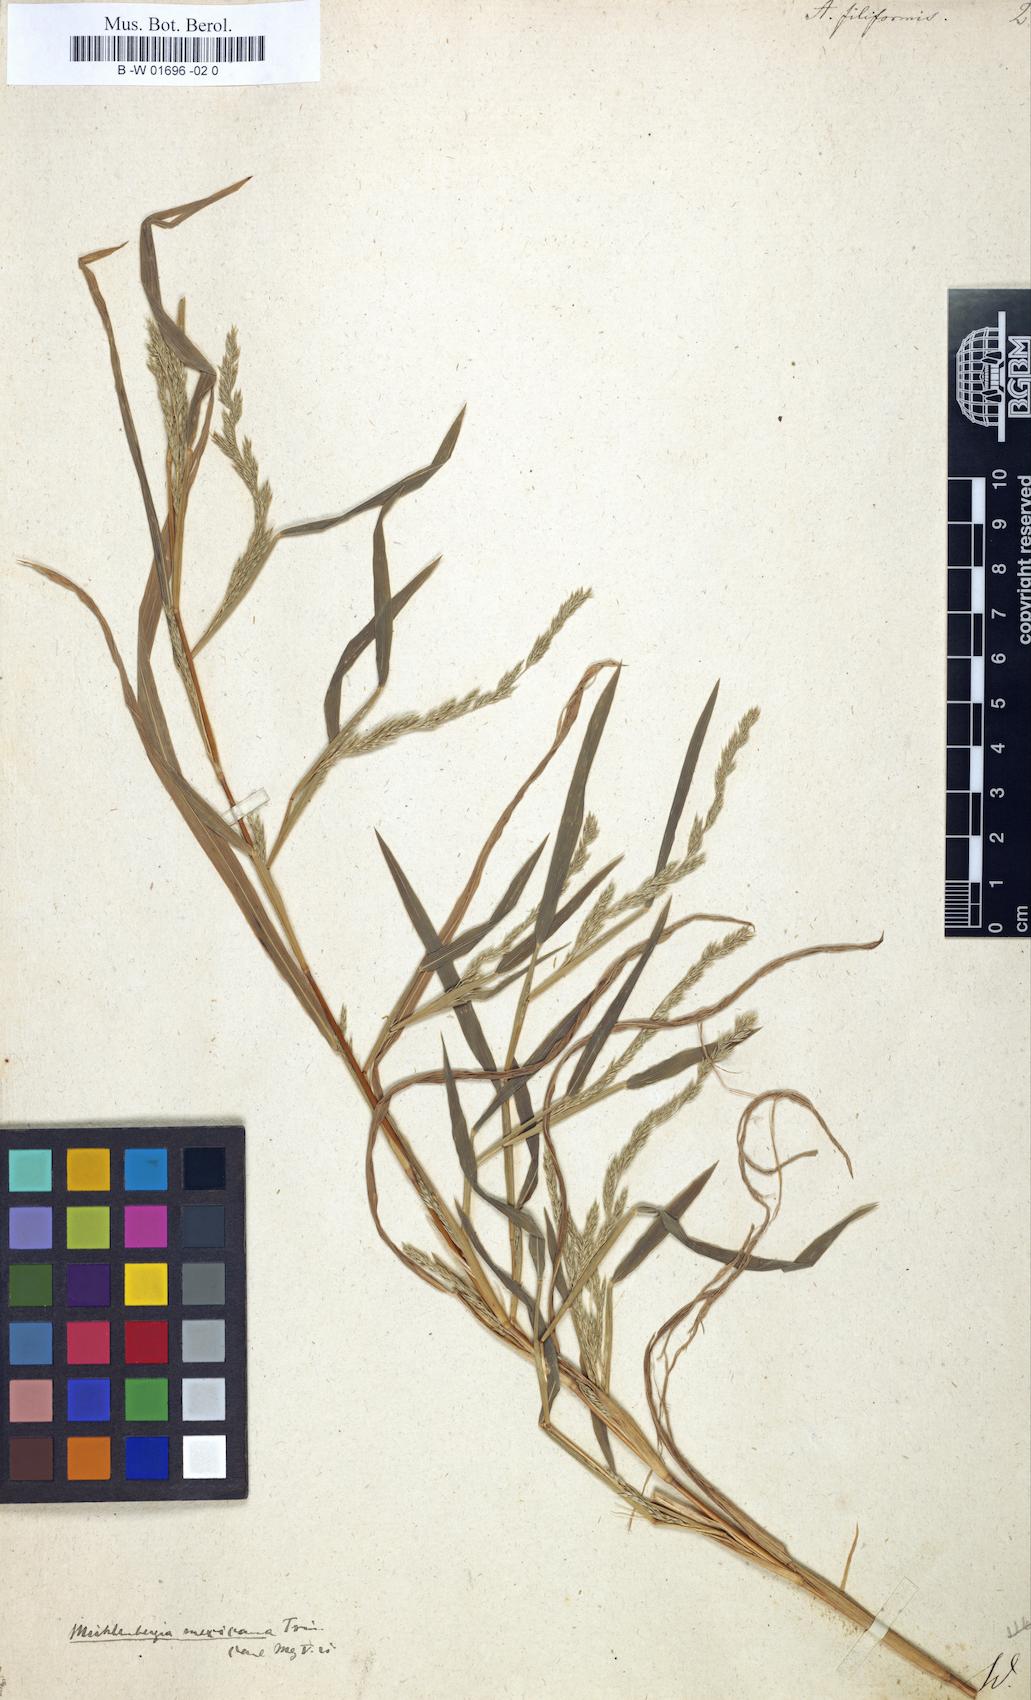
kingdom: Plantae
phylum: Tracheophyta
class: Liliopsida
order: Poales
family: Poaceae
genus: Apera
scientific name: Apera spica-venti
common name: Loose silky-bent
